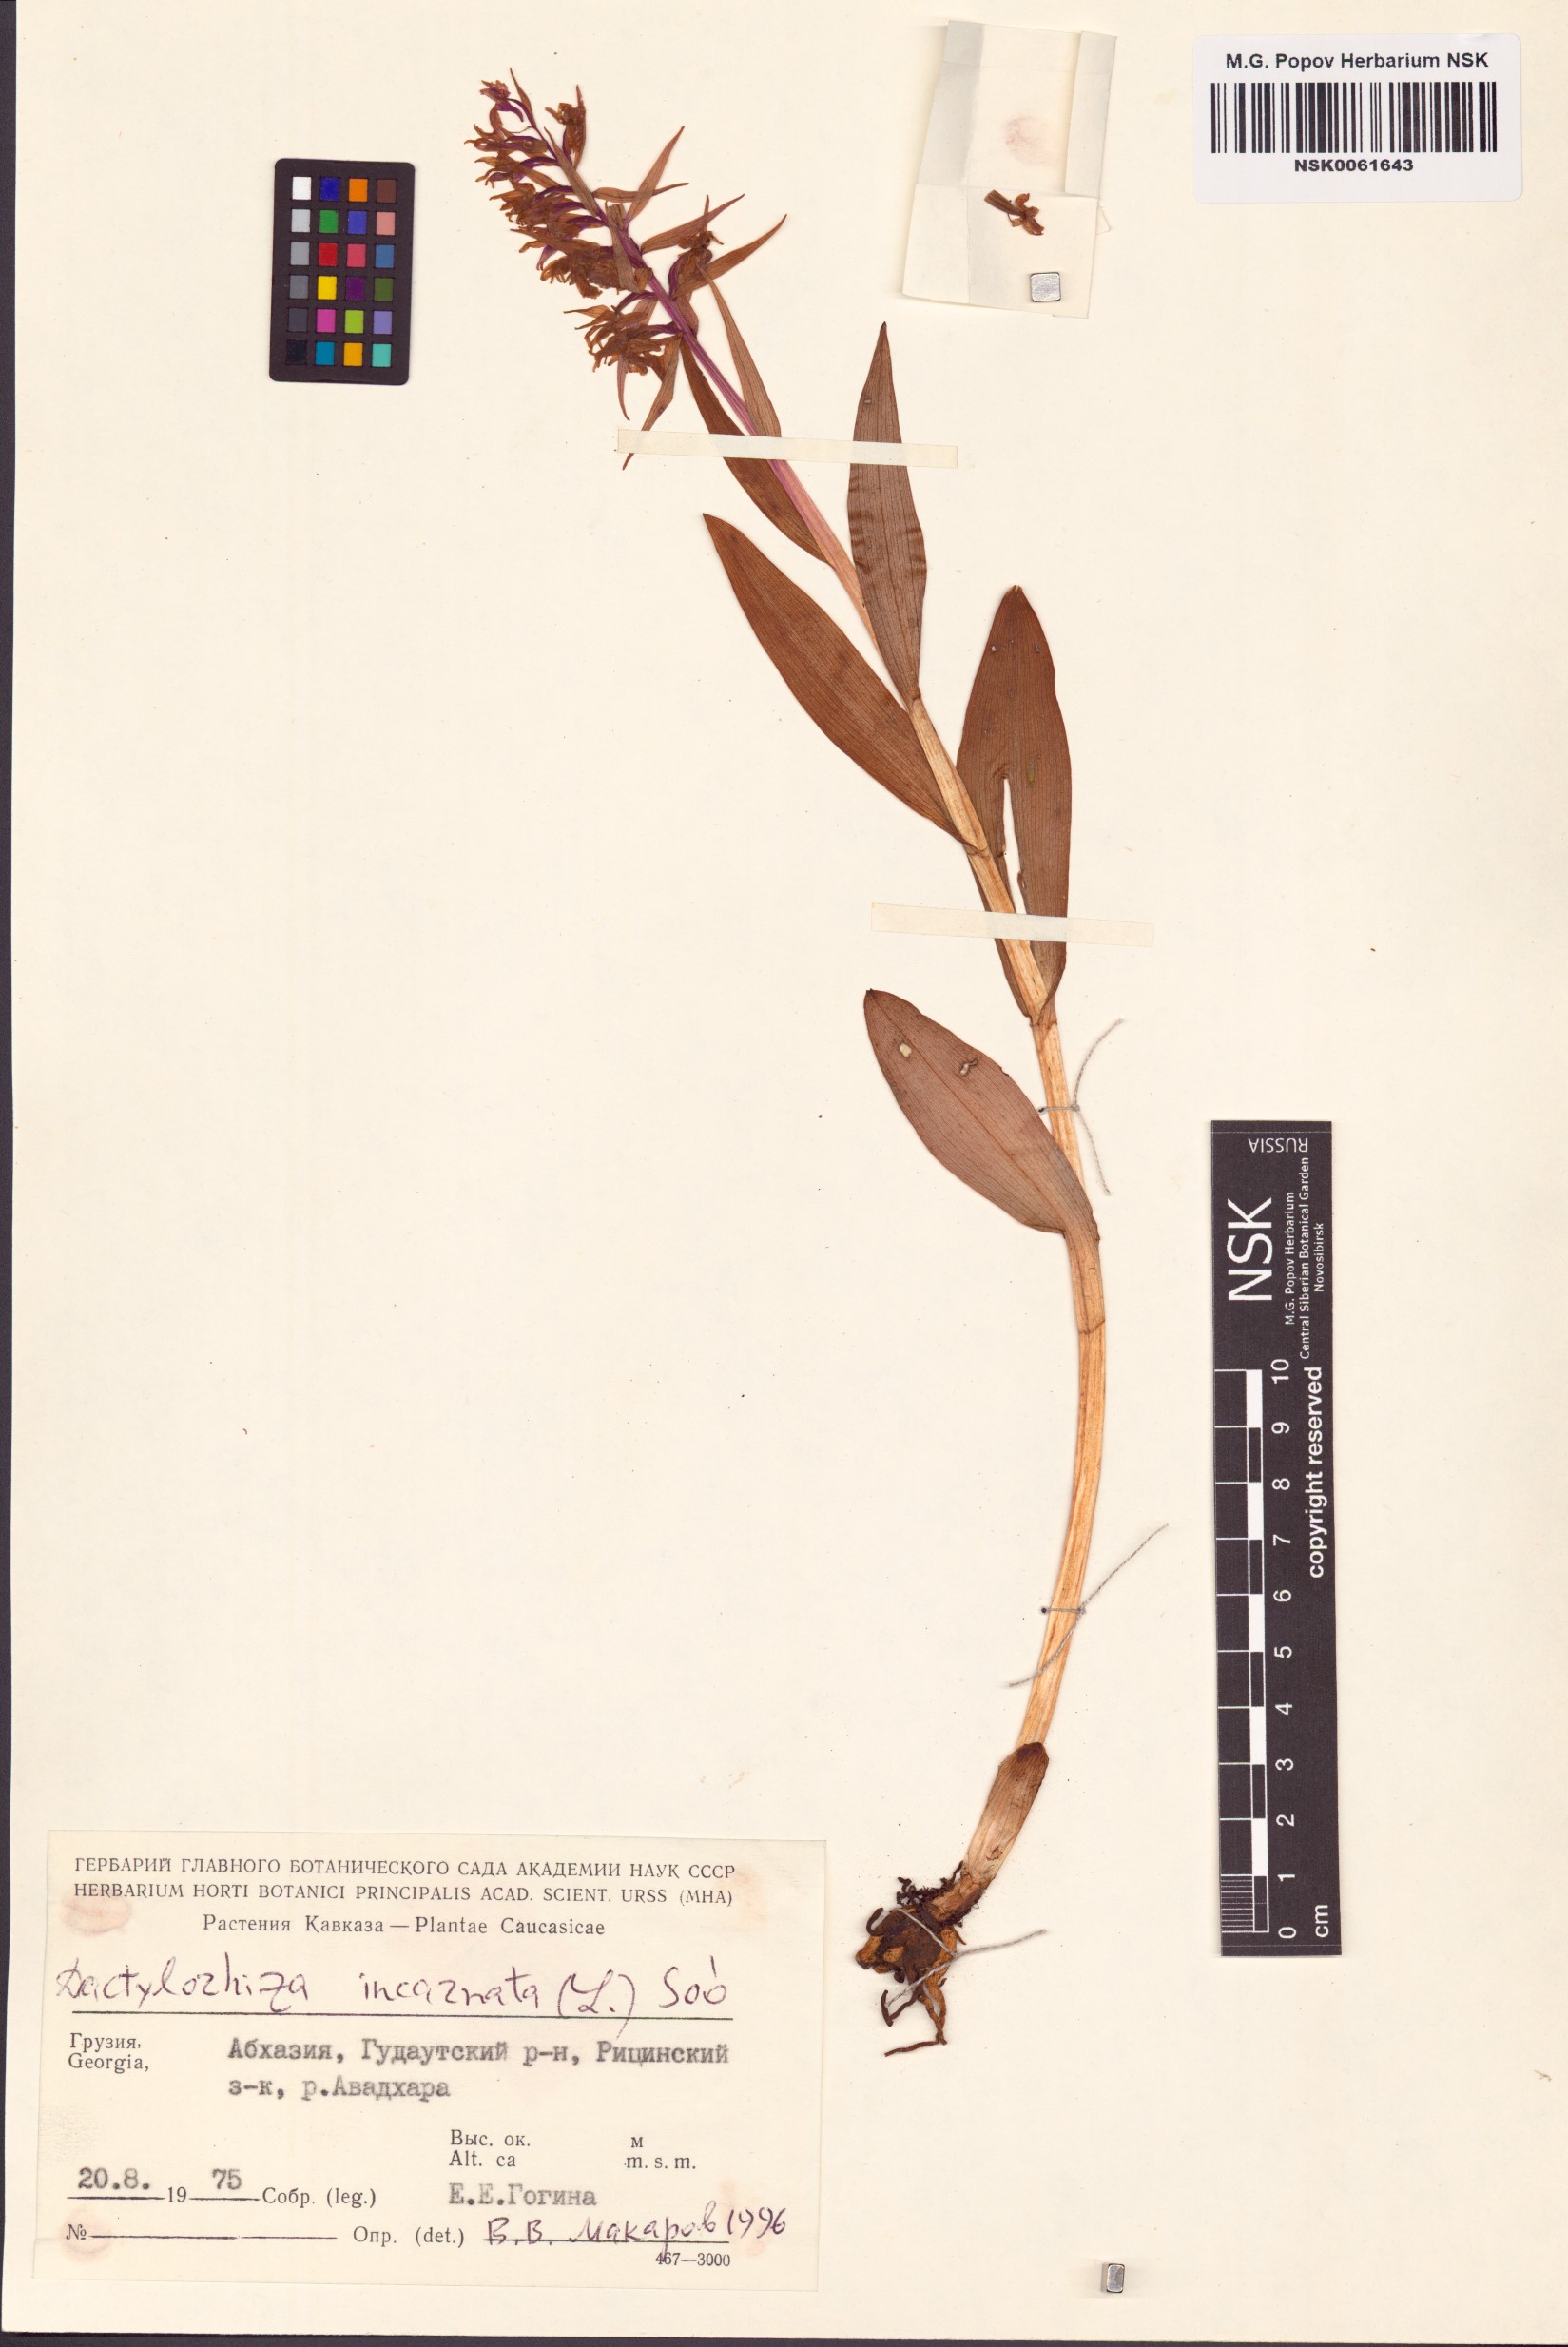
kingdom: Plantae
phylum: Tracheophyta
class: Liliopsida
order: Asparagales
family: Orchidaceae
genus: Dactylorhiza
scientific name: Dactylorhiza incarnata
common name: Early marsh-orchid
